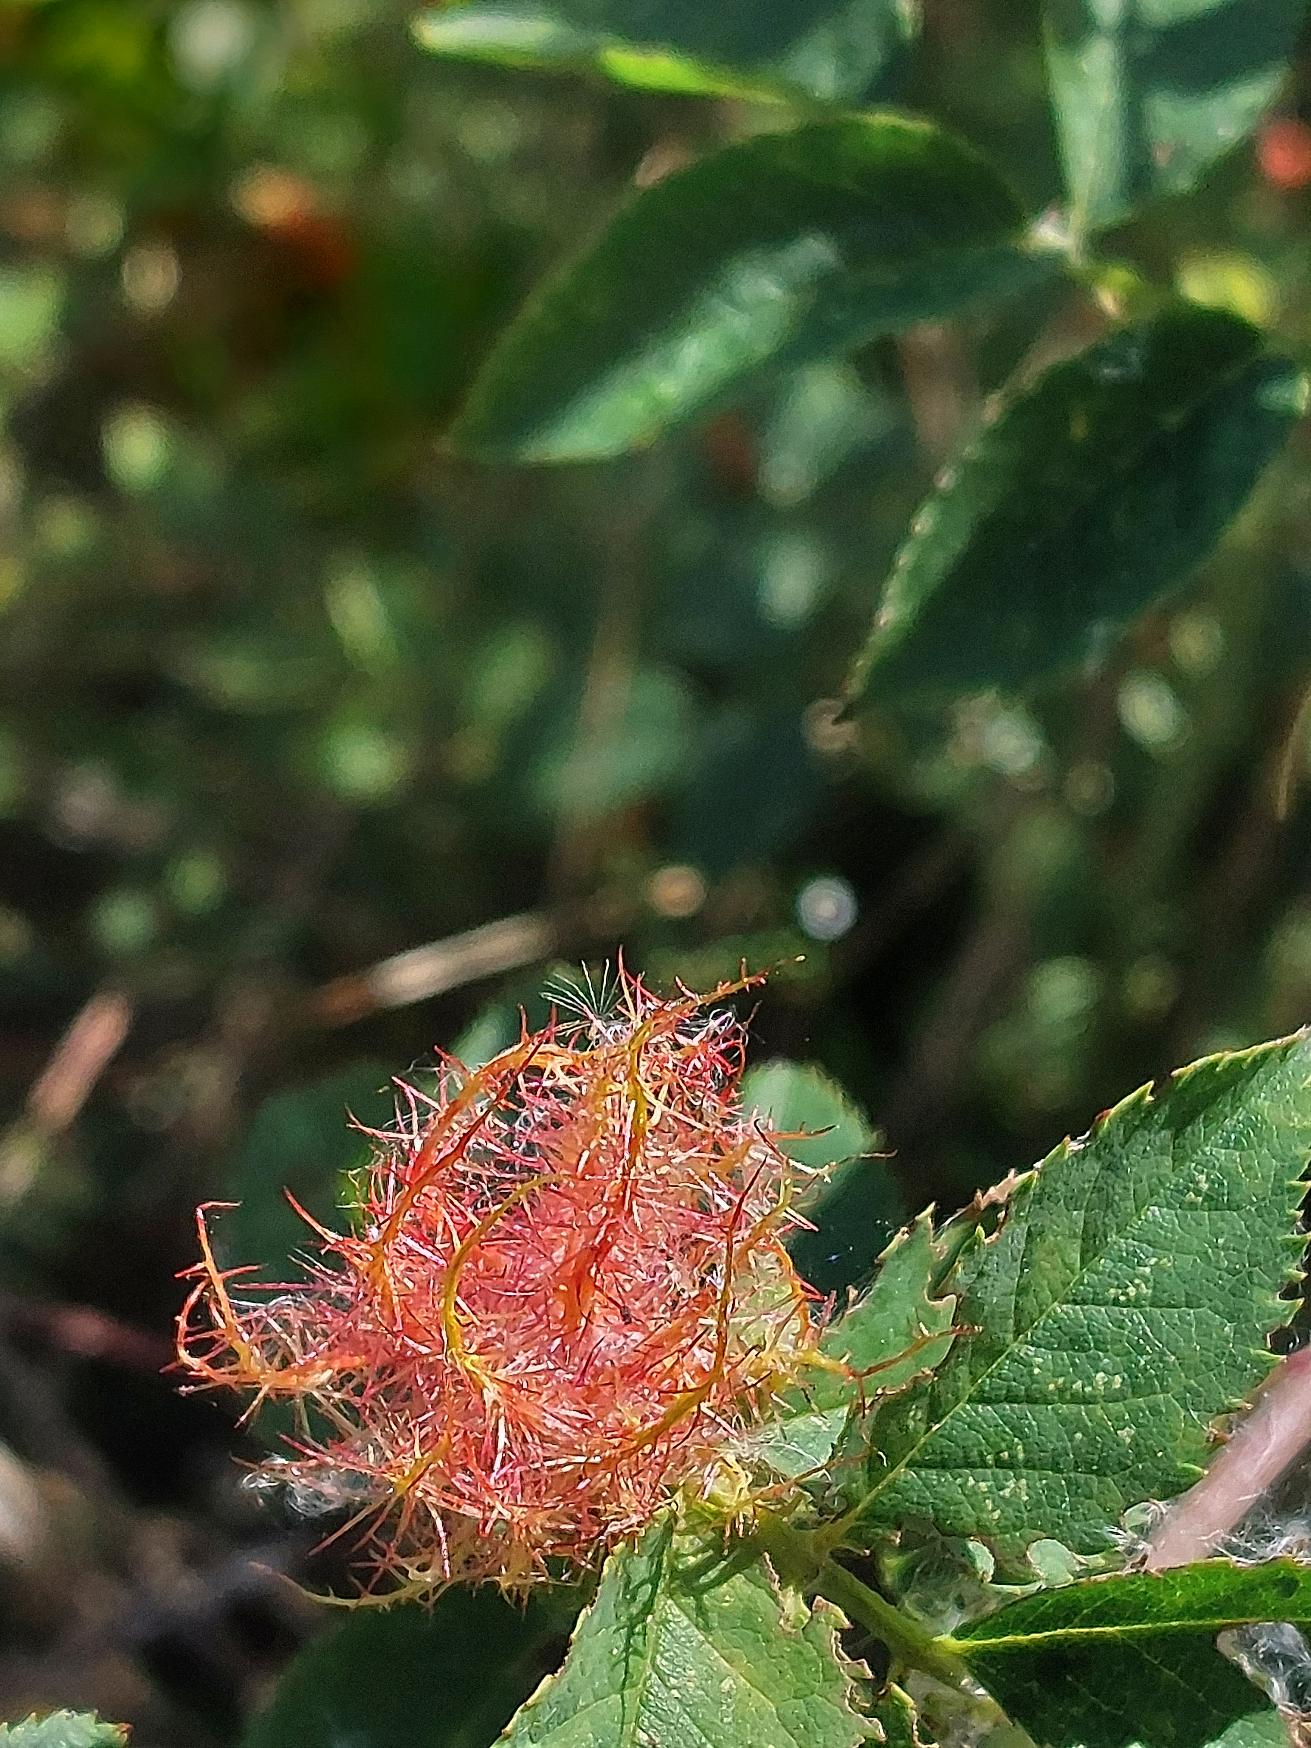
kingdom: Animalia
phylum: Arthropoda
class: Insecta
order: Hymenoptera
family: Cynipidae
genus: Diplolepis
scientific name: Diplolepis rosae
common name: Bedeguargalhveps
